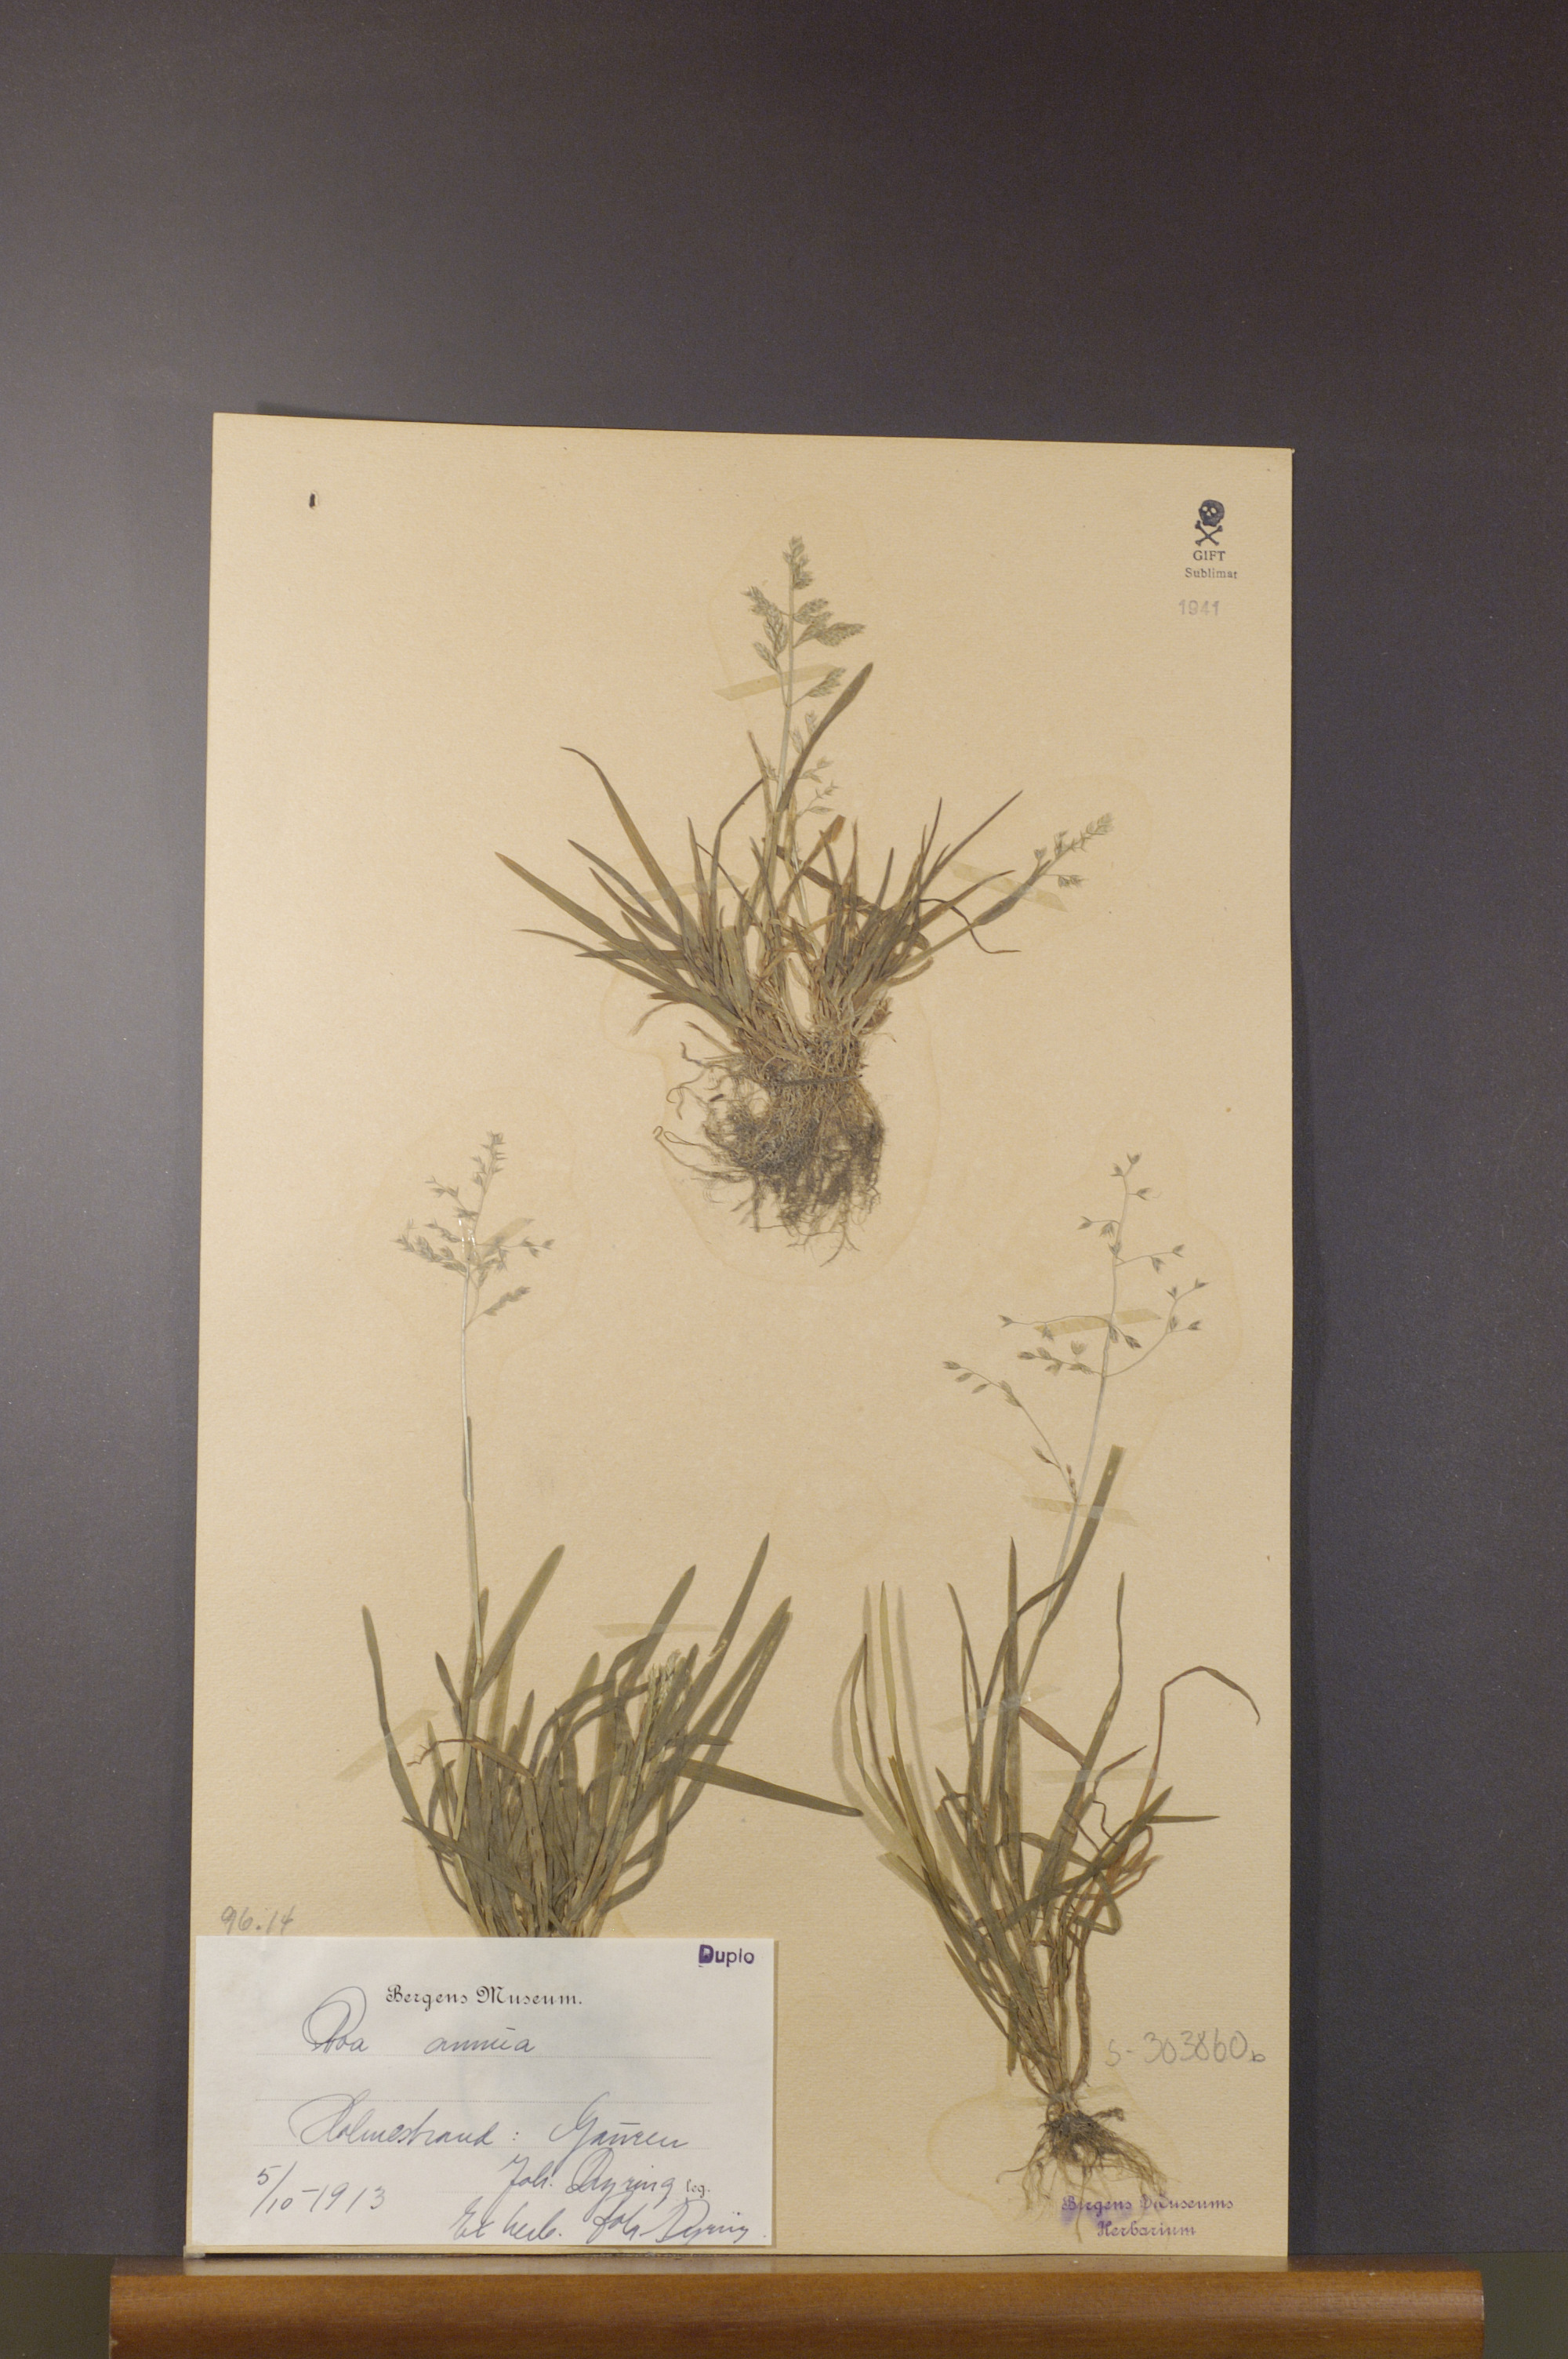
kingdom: Plantae
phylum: Tracheophyta
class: Liliopsida
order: Poales
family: Poaceae
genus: Poa
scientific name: Poa annua
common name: Annual bluegrass
